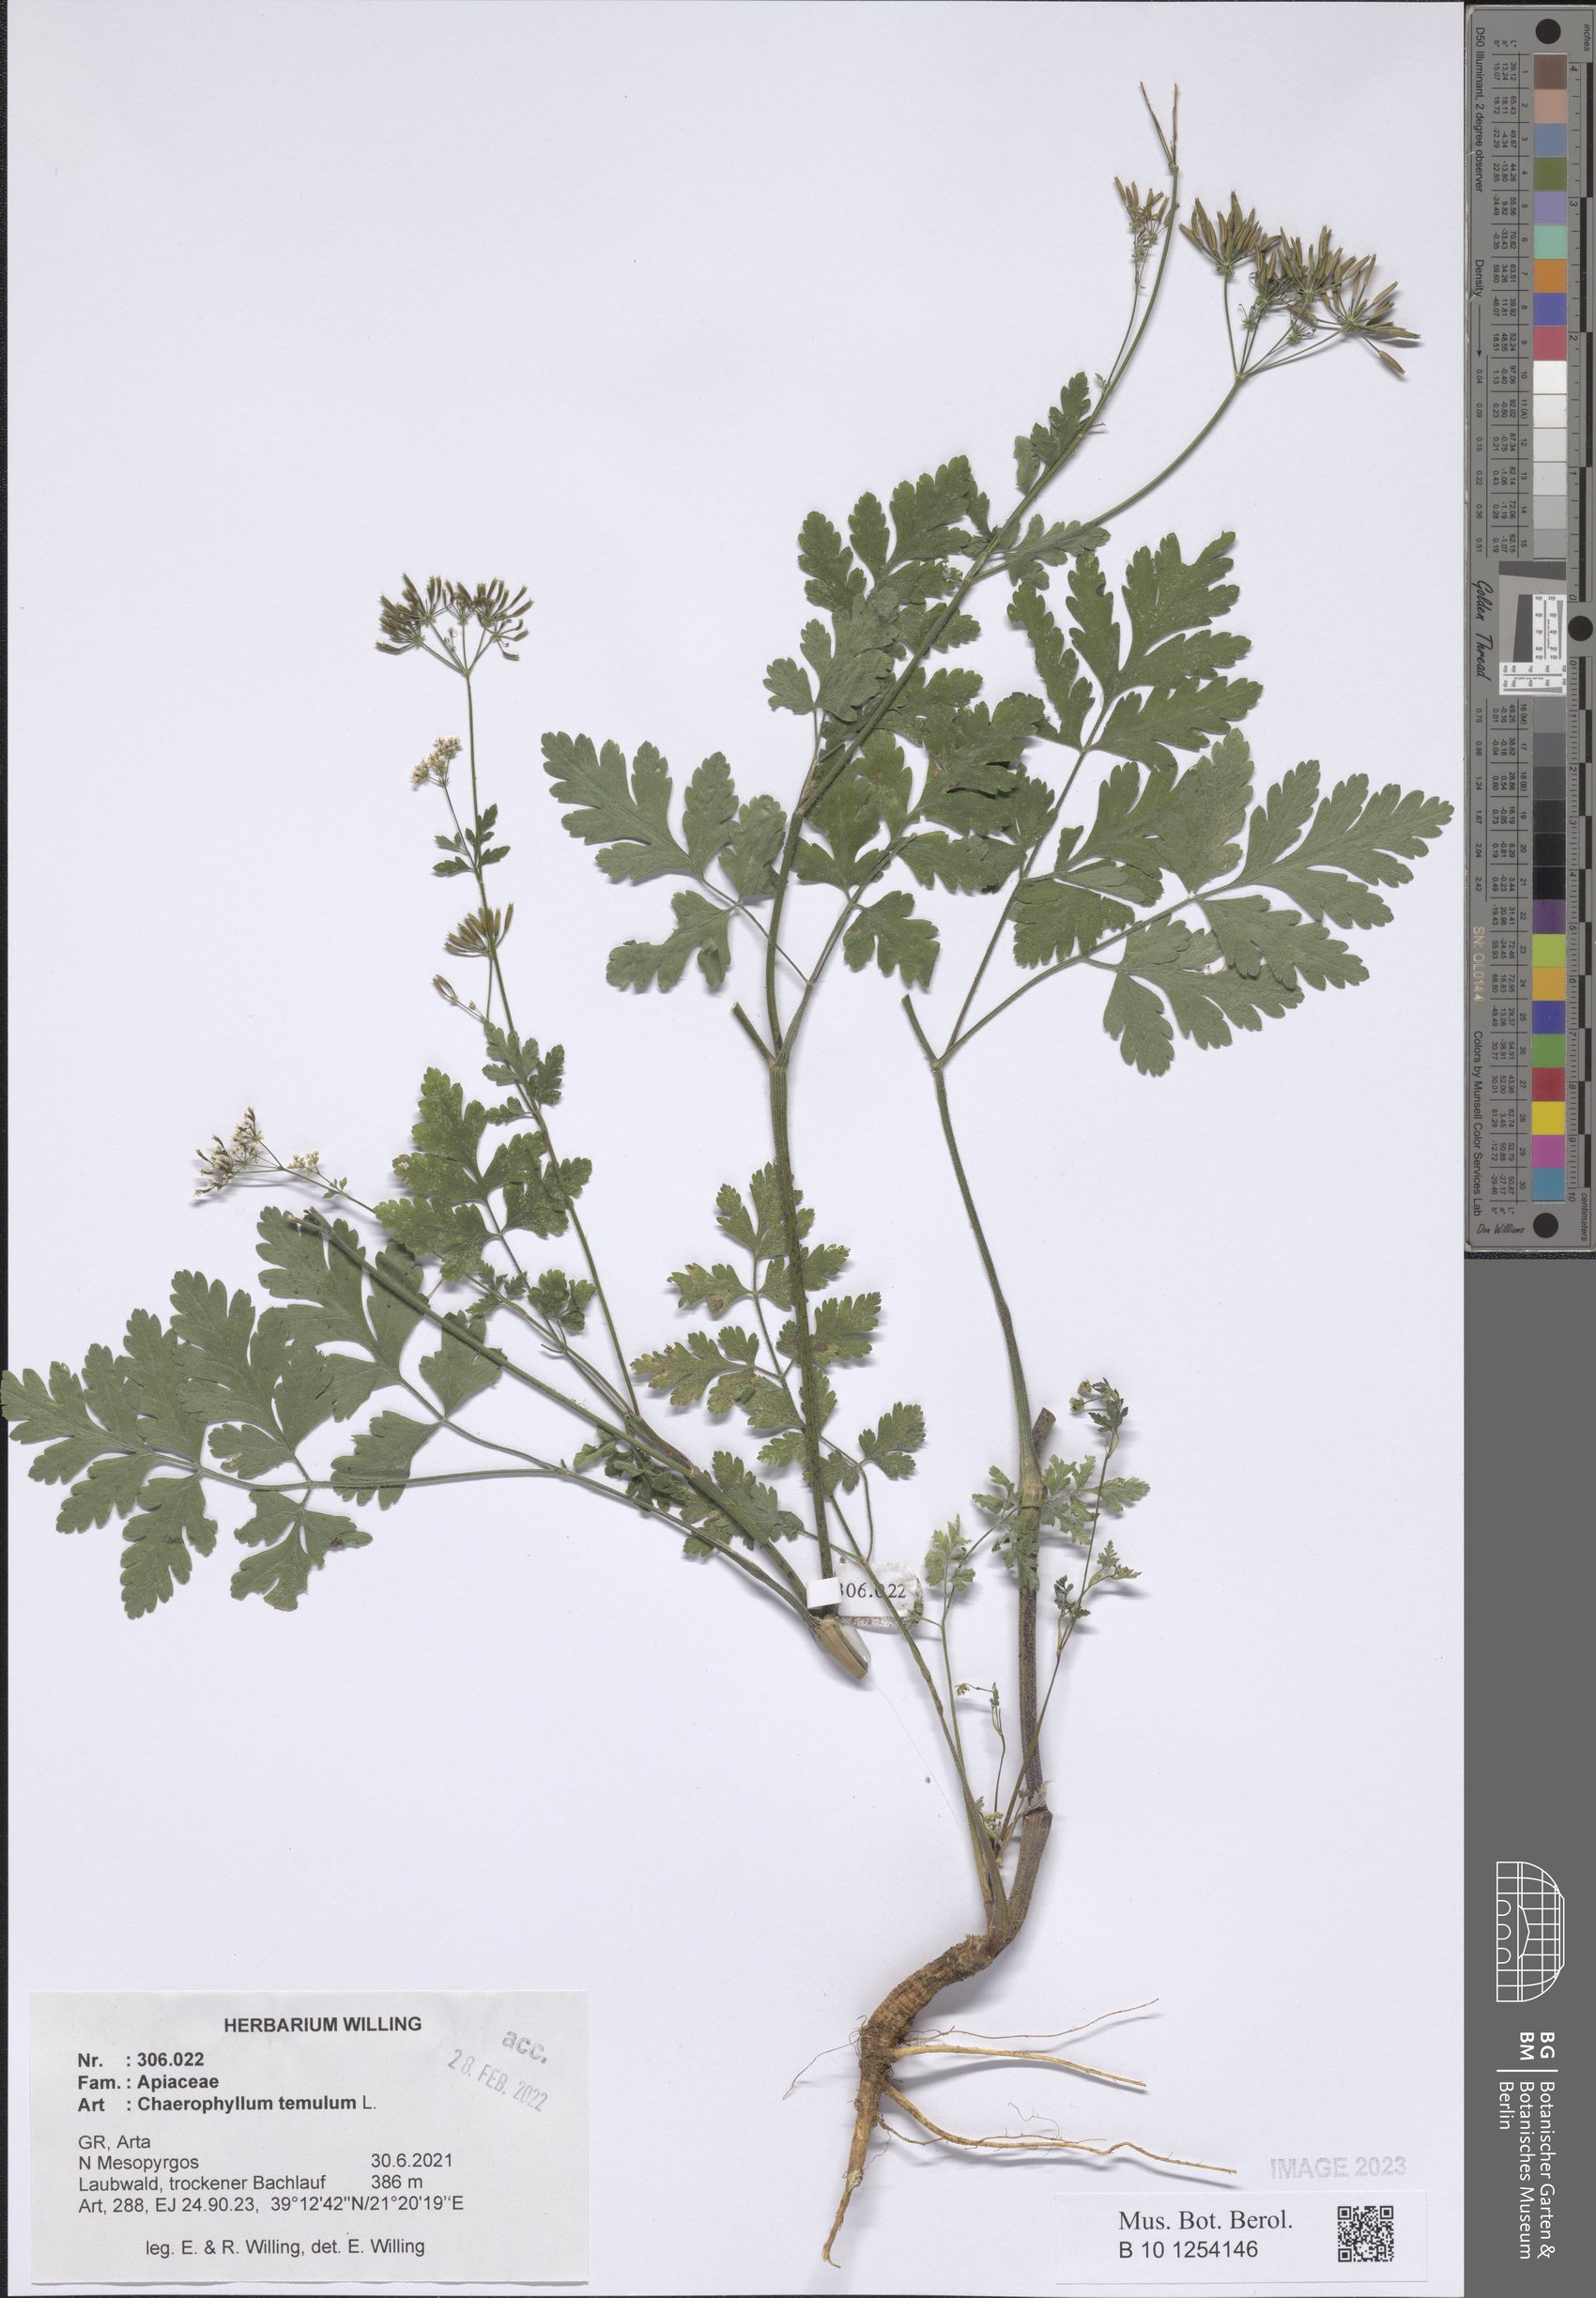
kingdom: Plantae
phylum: Tracheophyta
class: Magnoliopsida
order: Apiales
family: Apiaceae
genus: Chaerophyllum
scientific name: Chaerophyllum temulum
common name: Rough chervil
